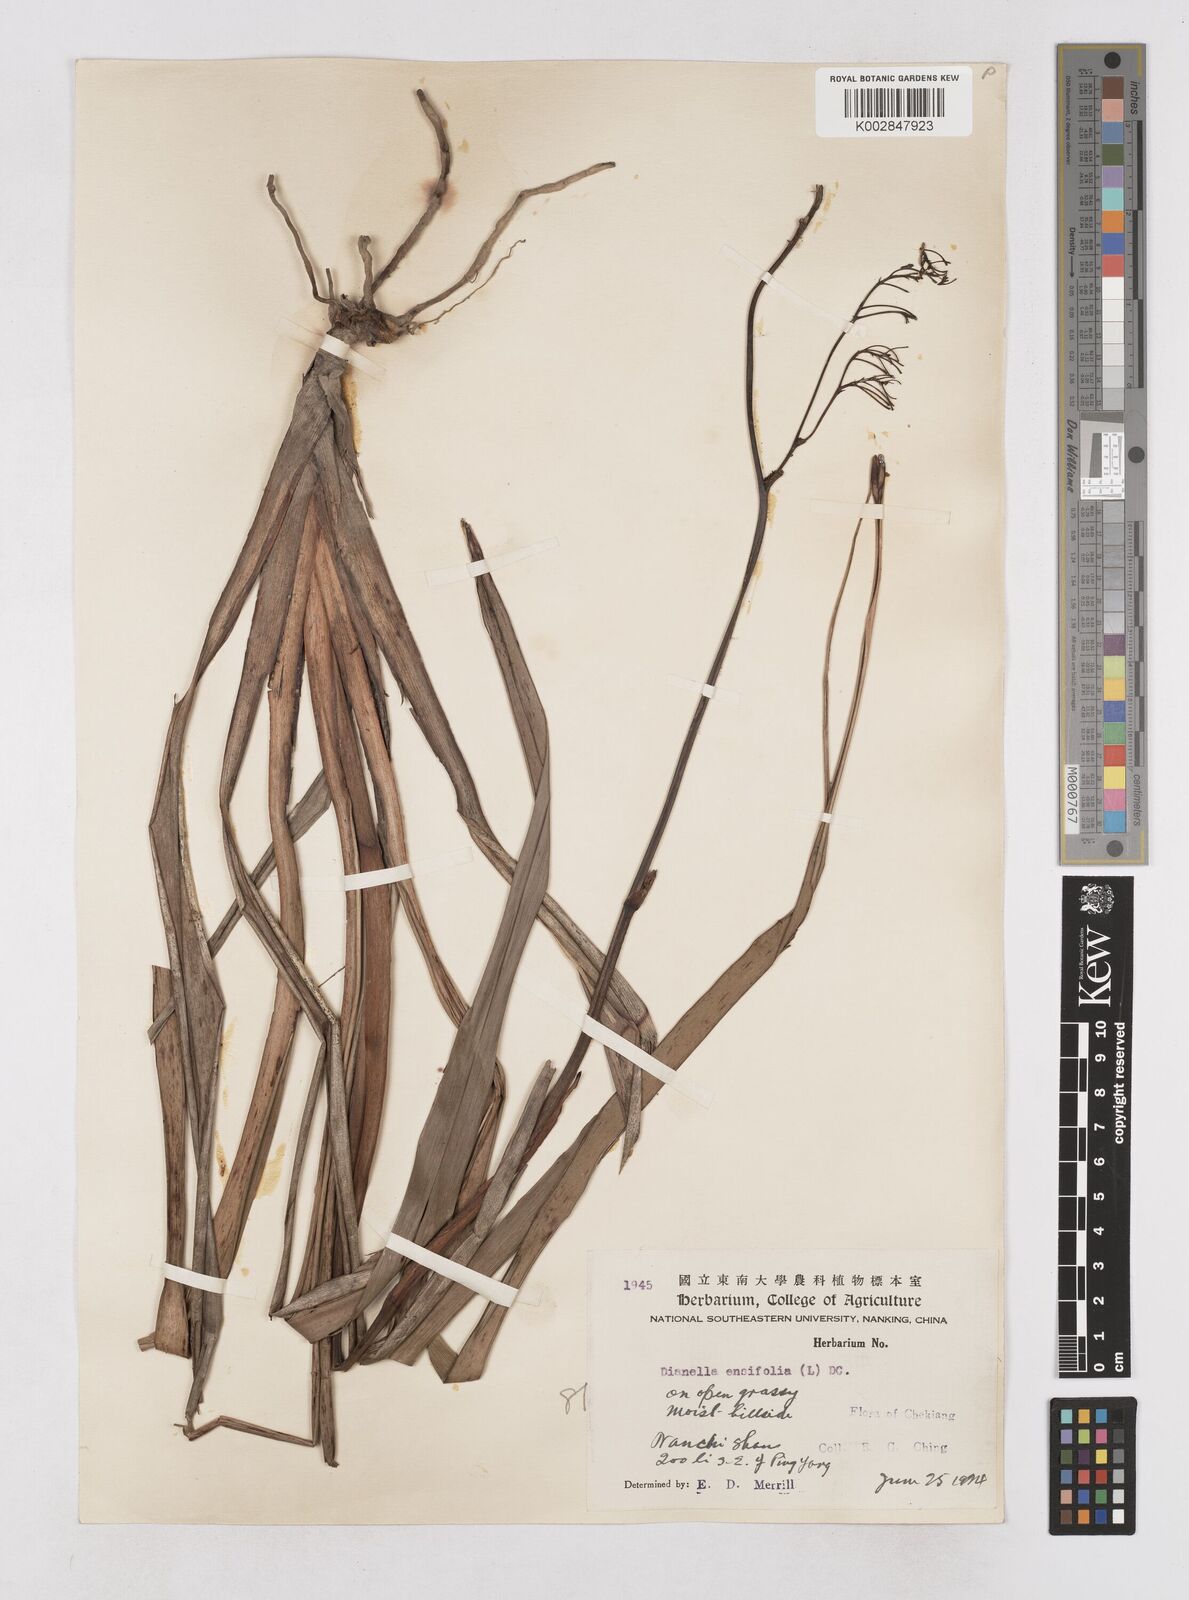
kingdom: Plantae
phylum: Tracheophyta
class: Liliopsida
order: Asparagales
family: Asphodelaceae
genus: Dianella
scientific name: Dianella ensifolia
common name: New zealand lilyplant
